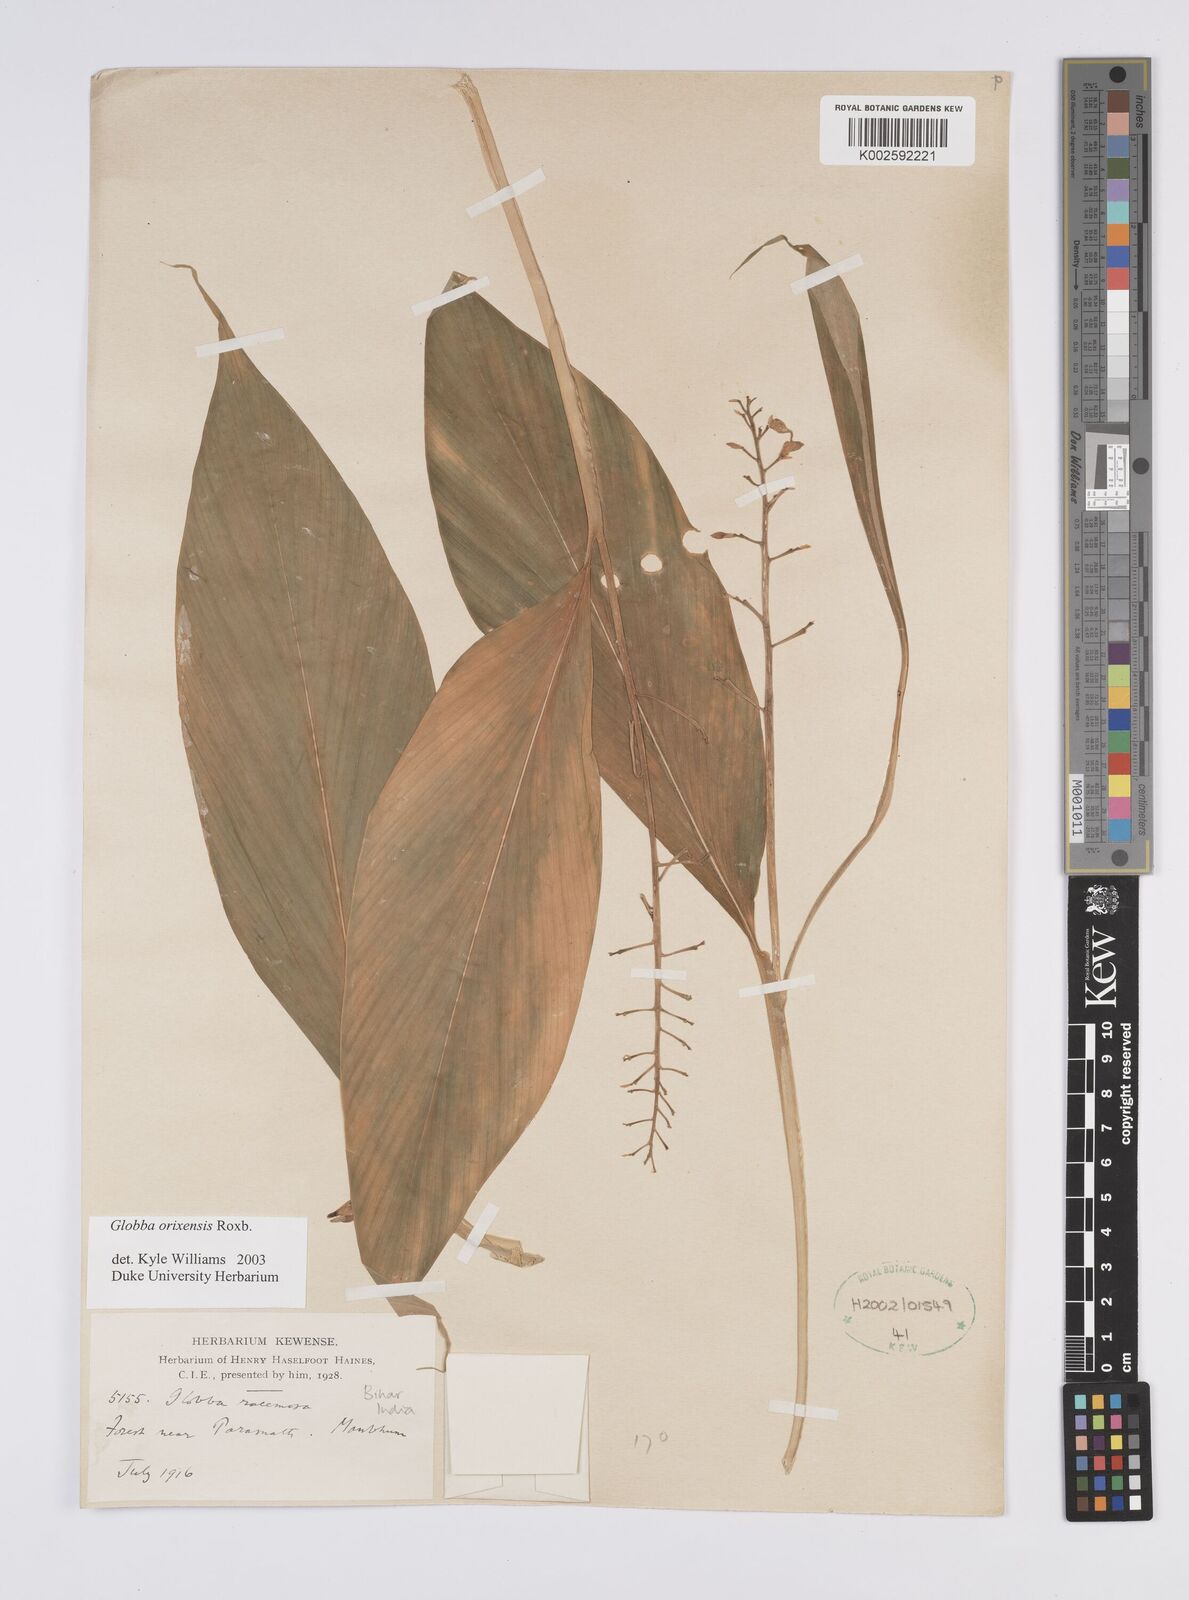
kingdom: Plantae
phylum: Tracheophyta
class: Liliopsida
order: Zingiberales
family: Zingiberaceae
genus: Globba
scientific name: Globba orixensis
